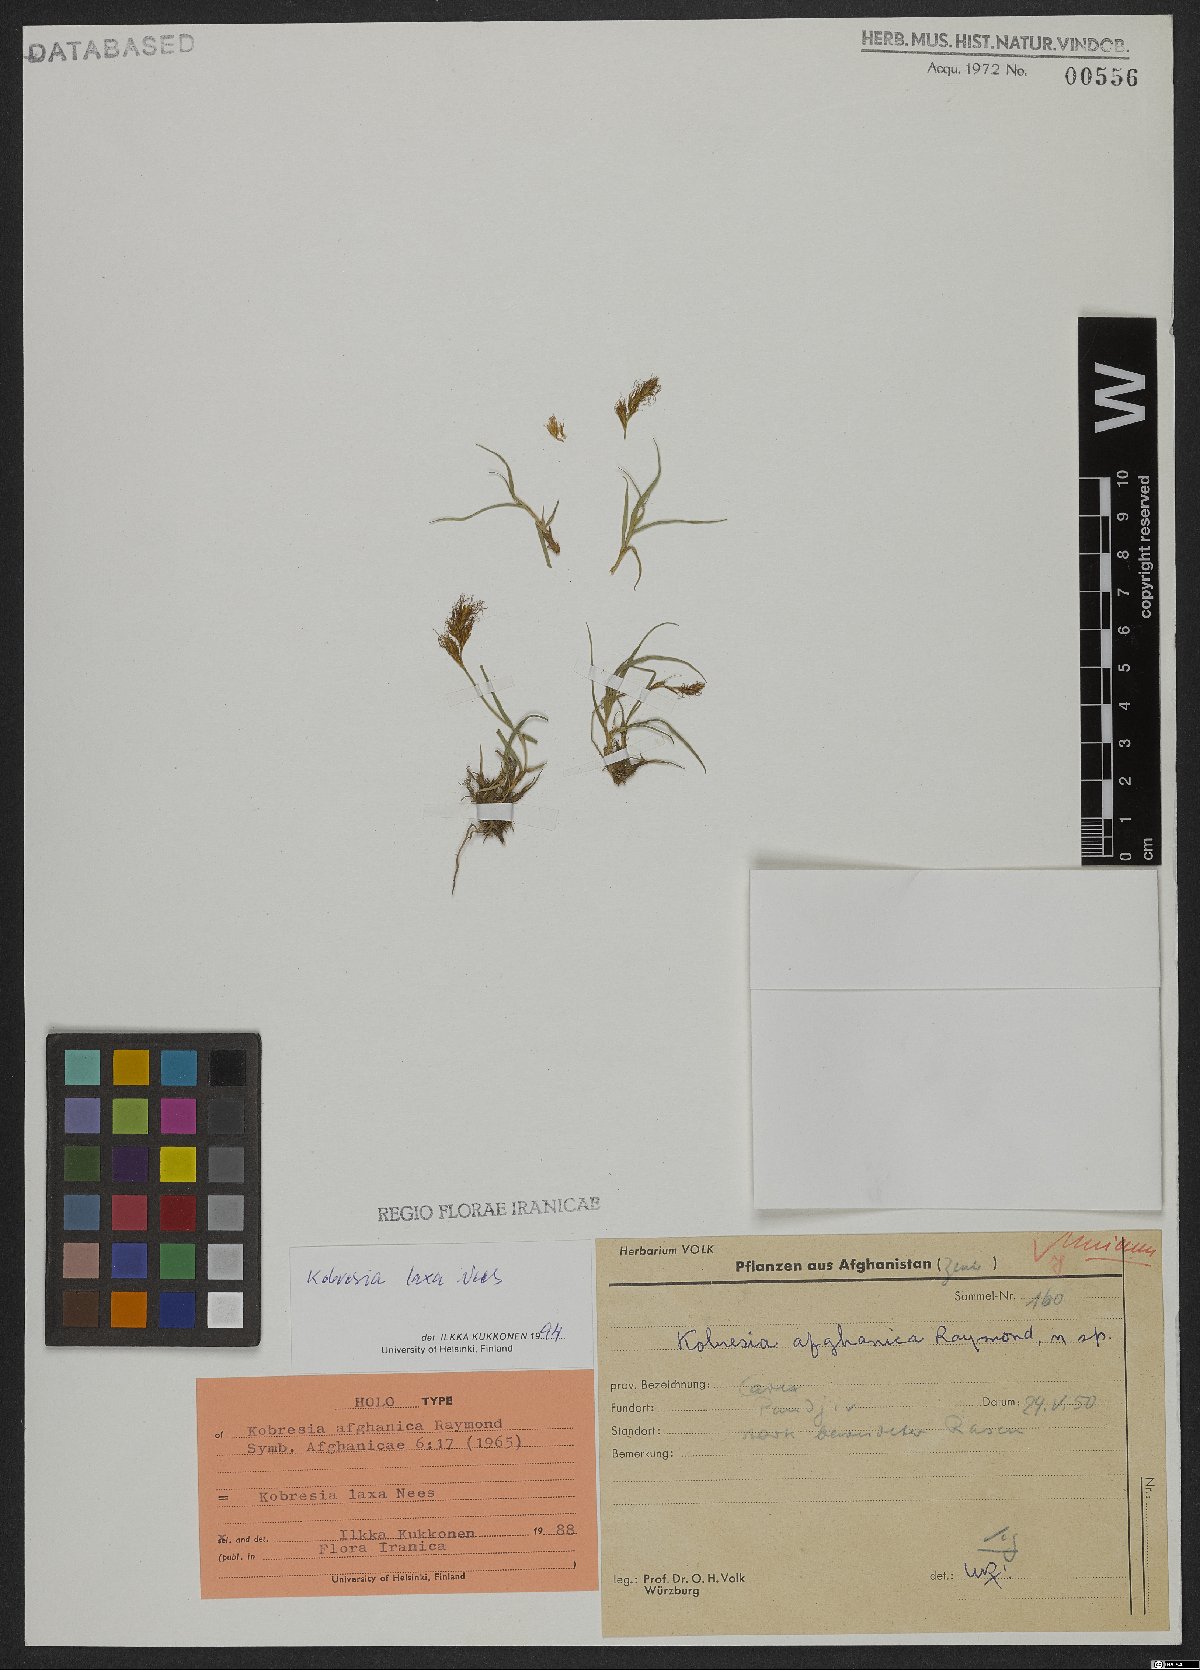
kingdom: Plantae
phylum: Tracheophyta
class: Liliopsida
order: Poales
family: Cyperaceae
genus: Carex
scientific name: Carex pseudolaxa
